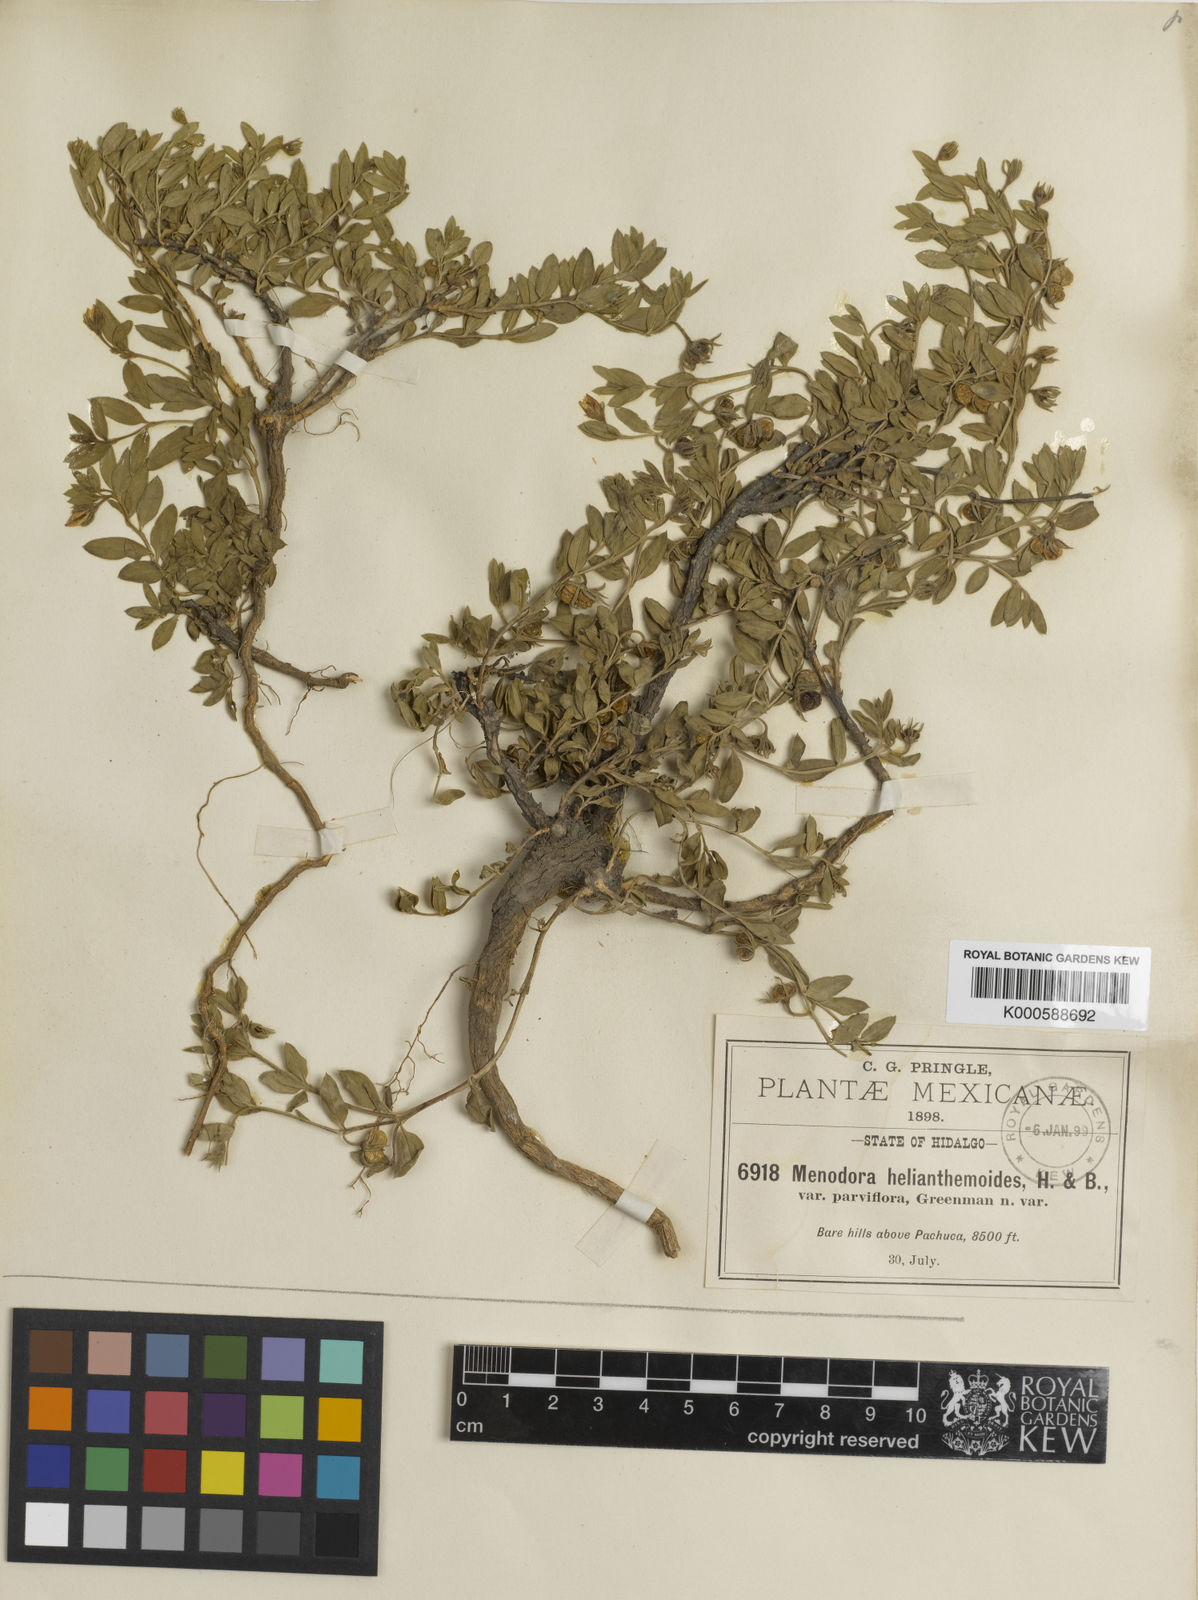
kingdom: Plantae
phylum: Tracheophyta
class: Magnoliopsida
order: Lamiales
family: Oleaceae
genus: Menodora
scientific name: Menodora helianthemoides
